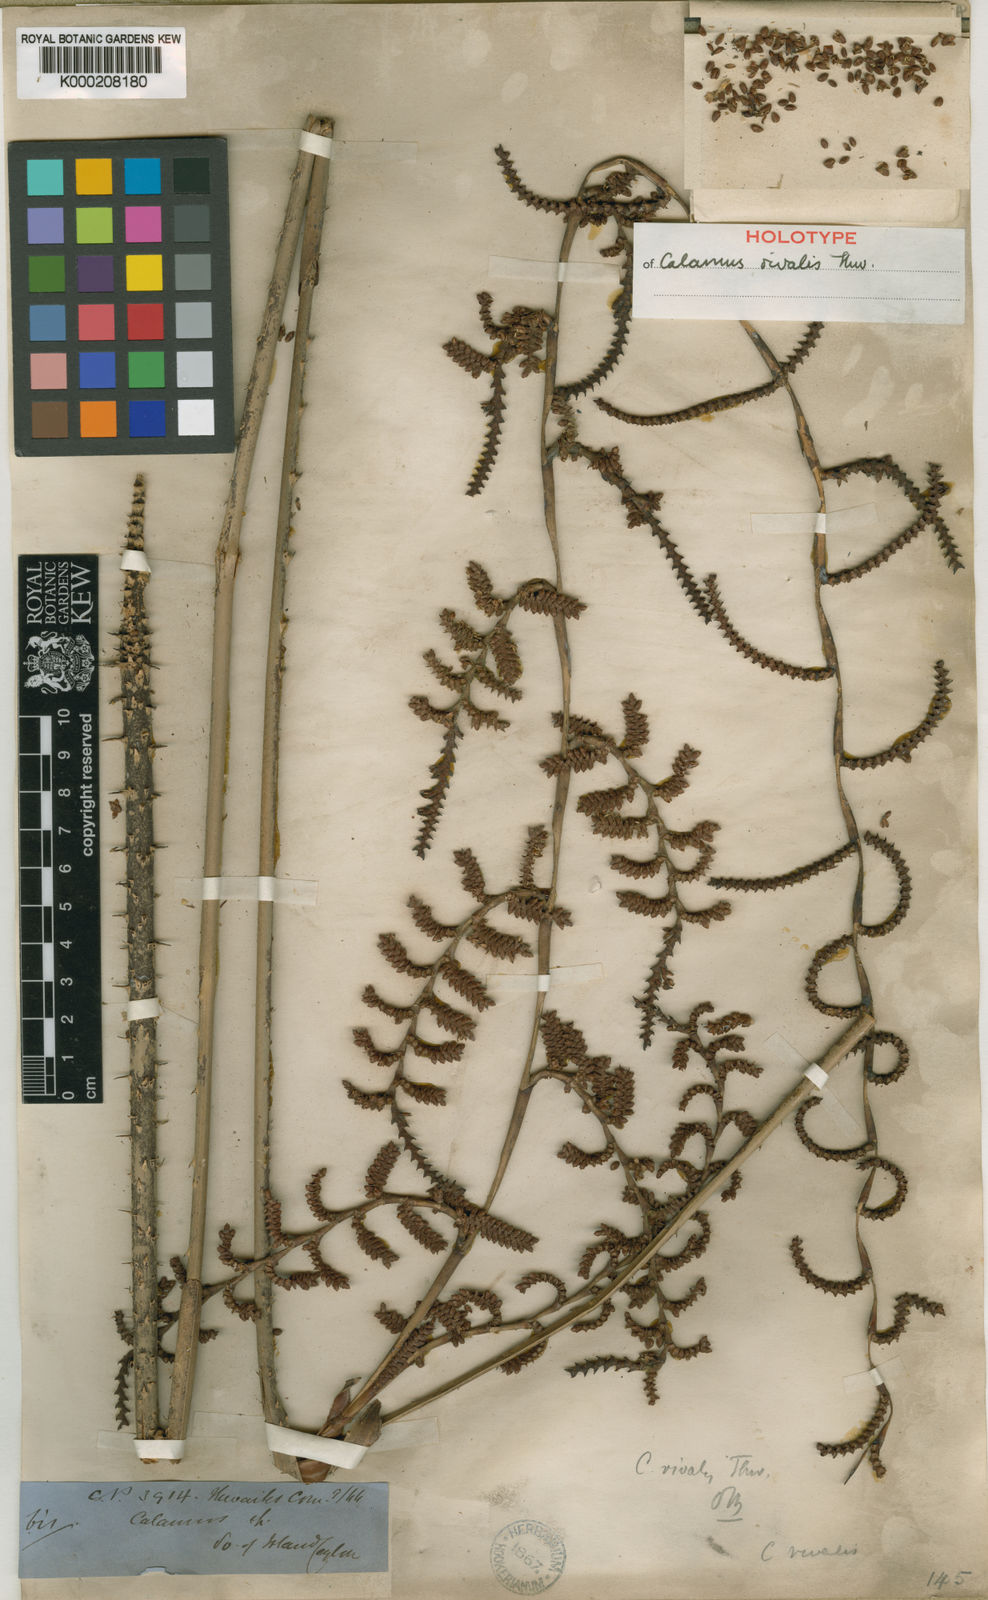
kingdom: Plantae
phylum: Tracheophyta
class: Liliopsida
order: Arecales
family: Arecaceae
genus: Calamus
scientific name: Calamus metzianus
